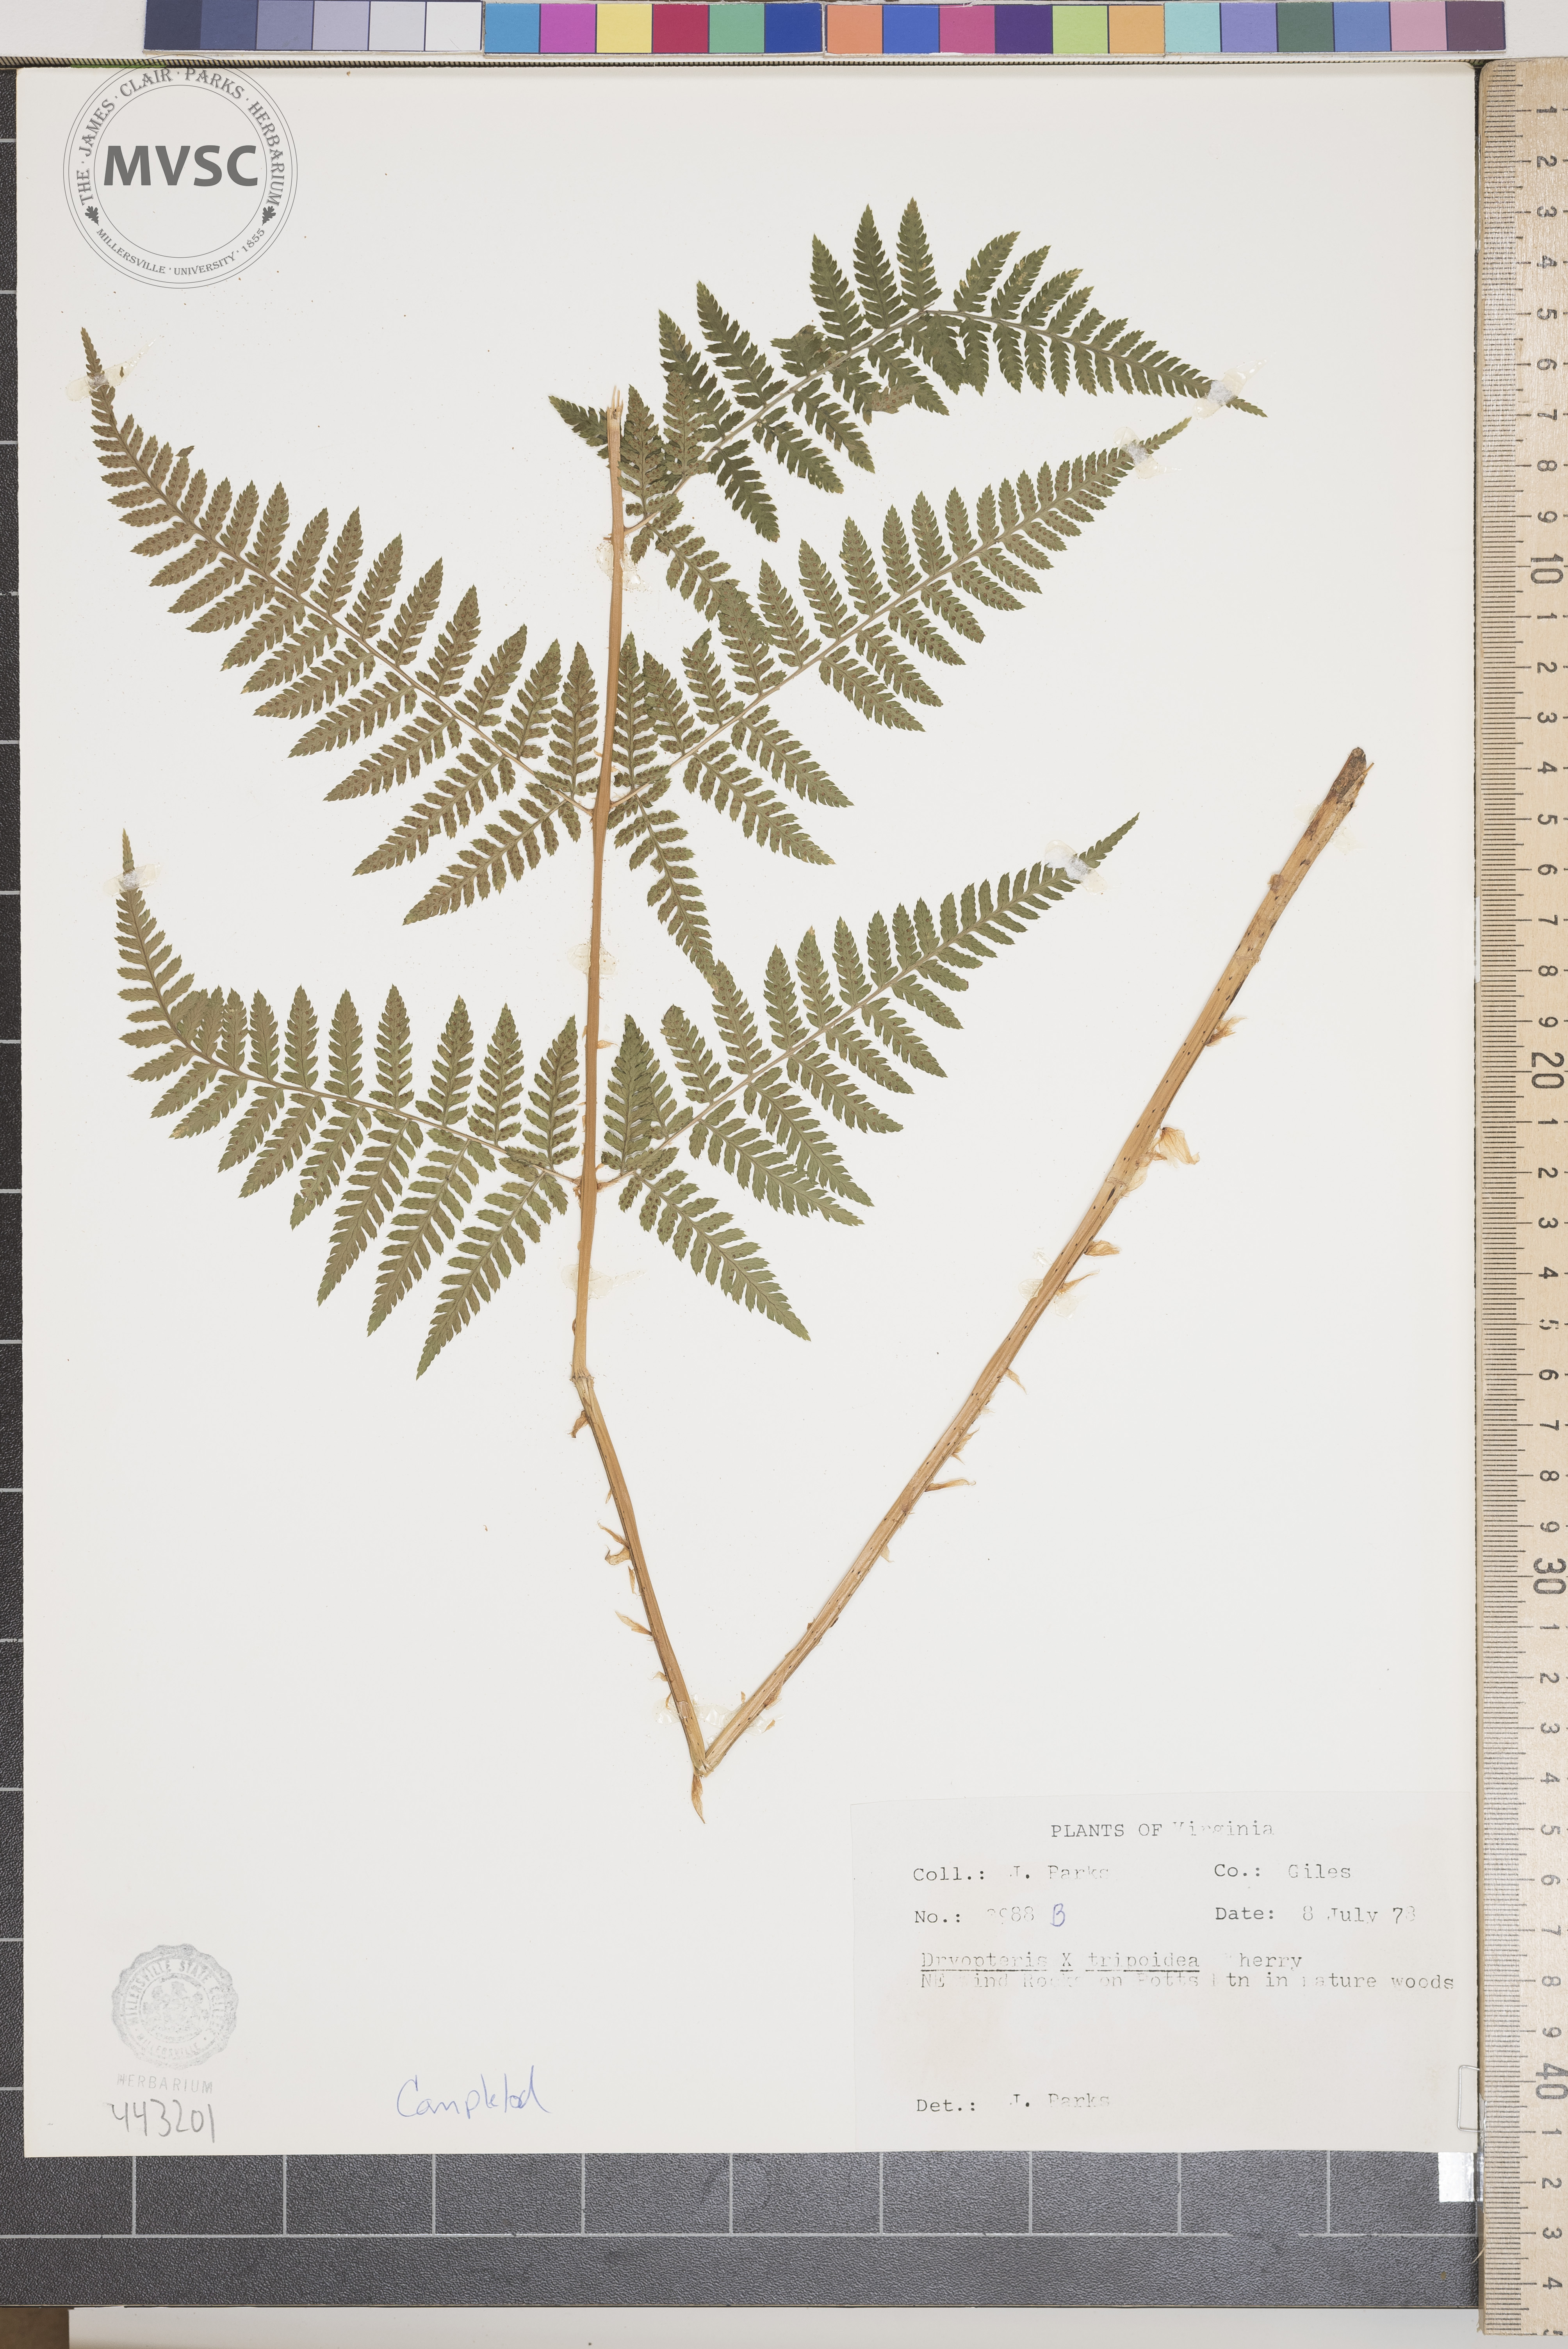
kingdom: Plantae
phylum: Tracheophyta
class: Polypodiopsida
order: Polypodiales
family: Dryopteridaceae
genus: Dryopteris
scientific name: Dryopteris triploidea
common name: Fruitful wood fern
